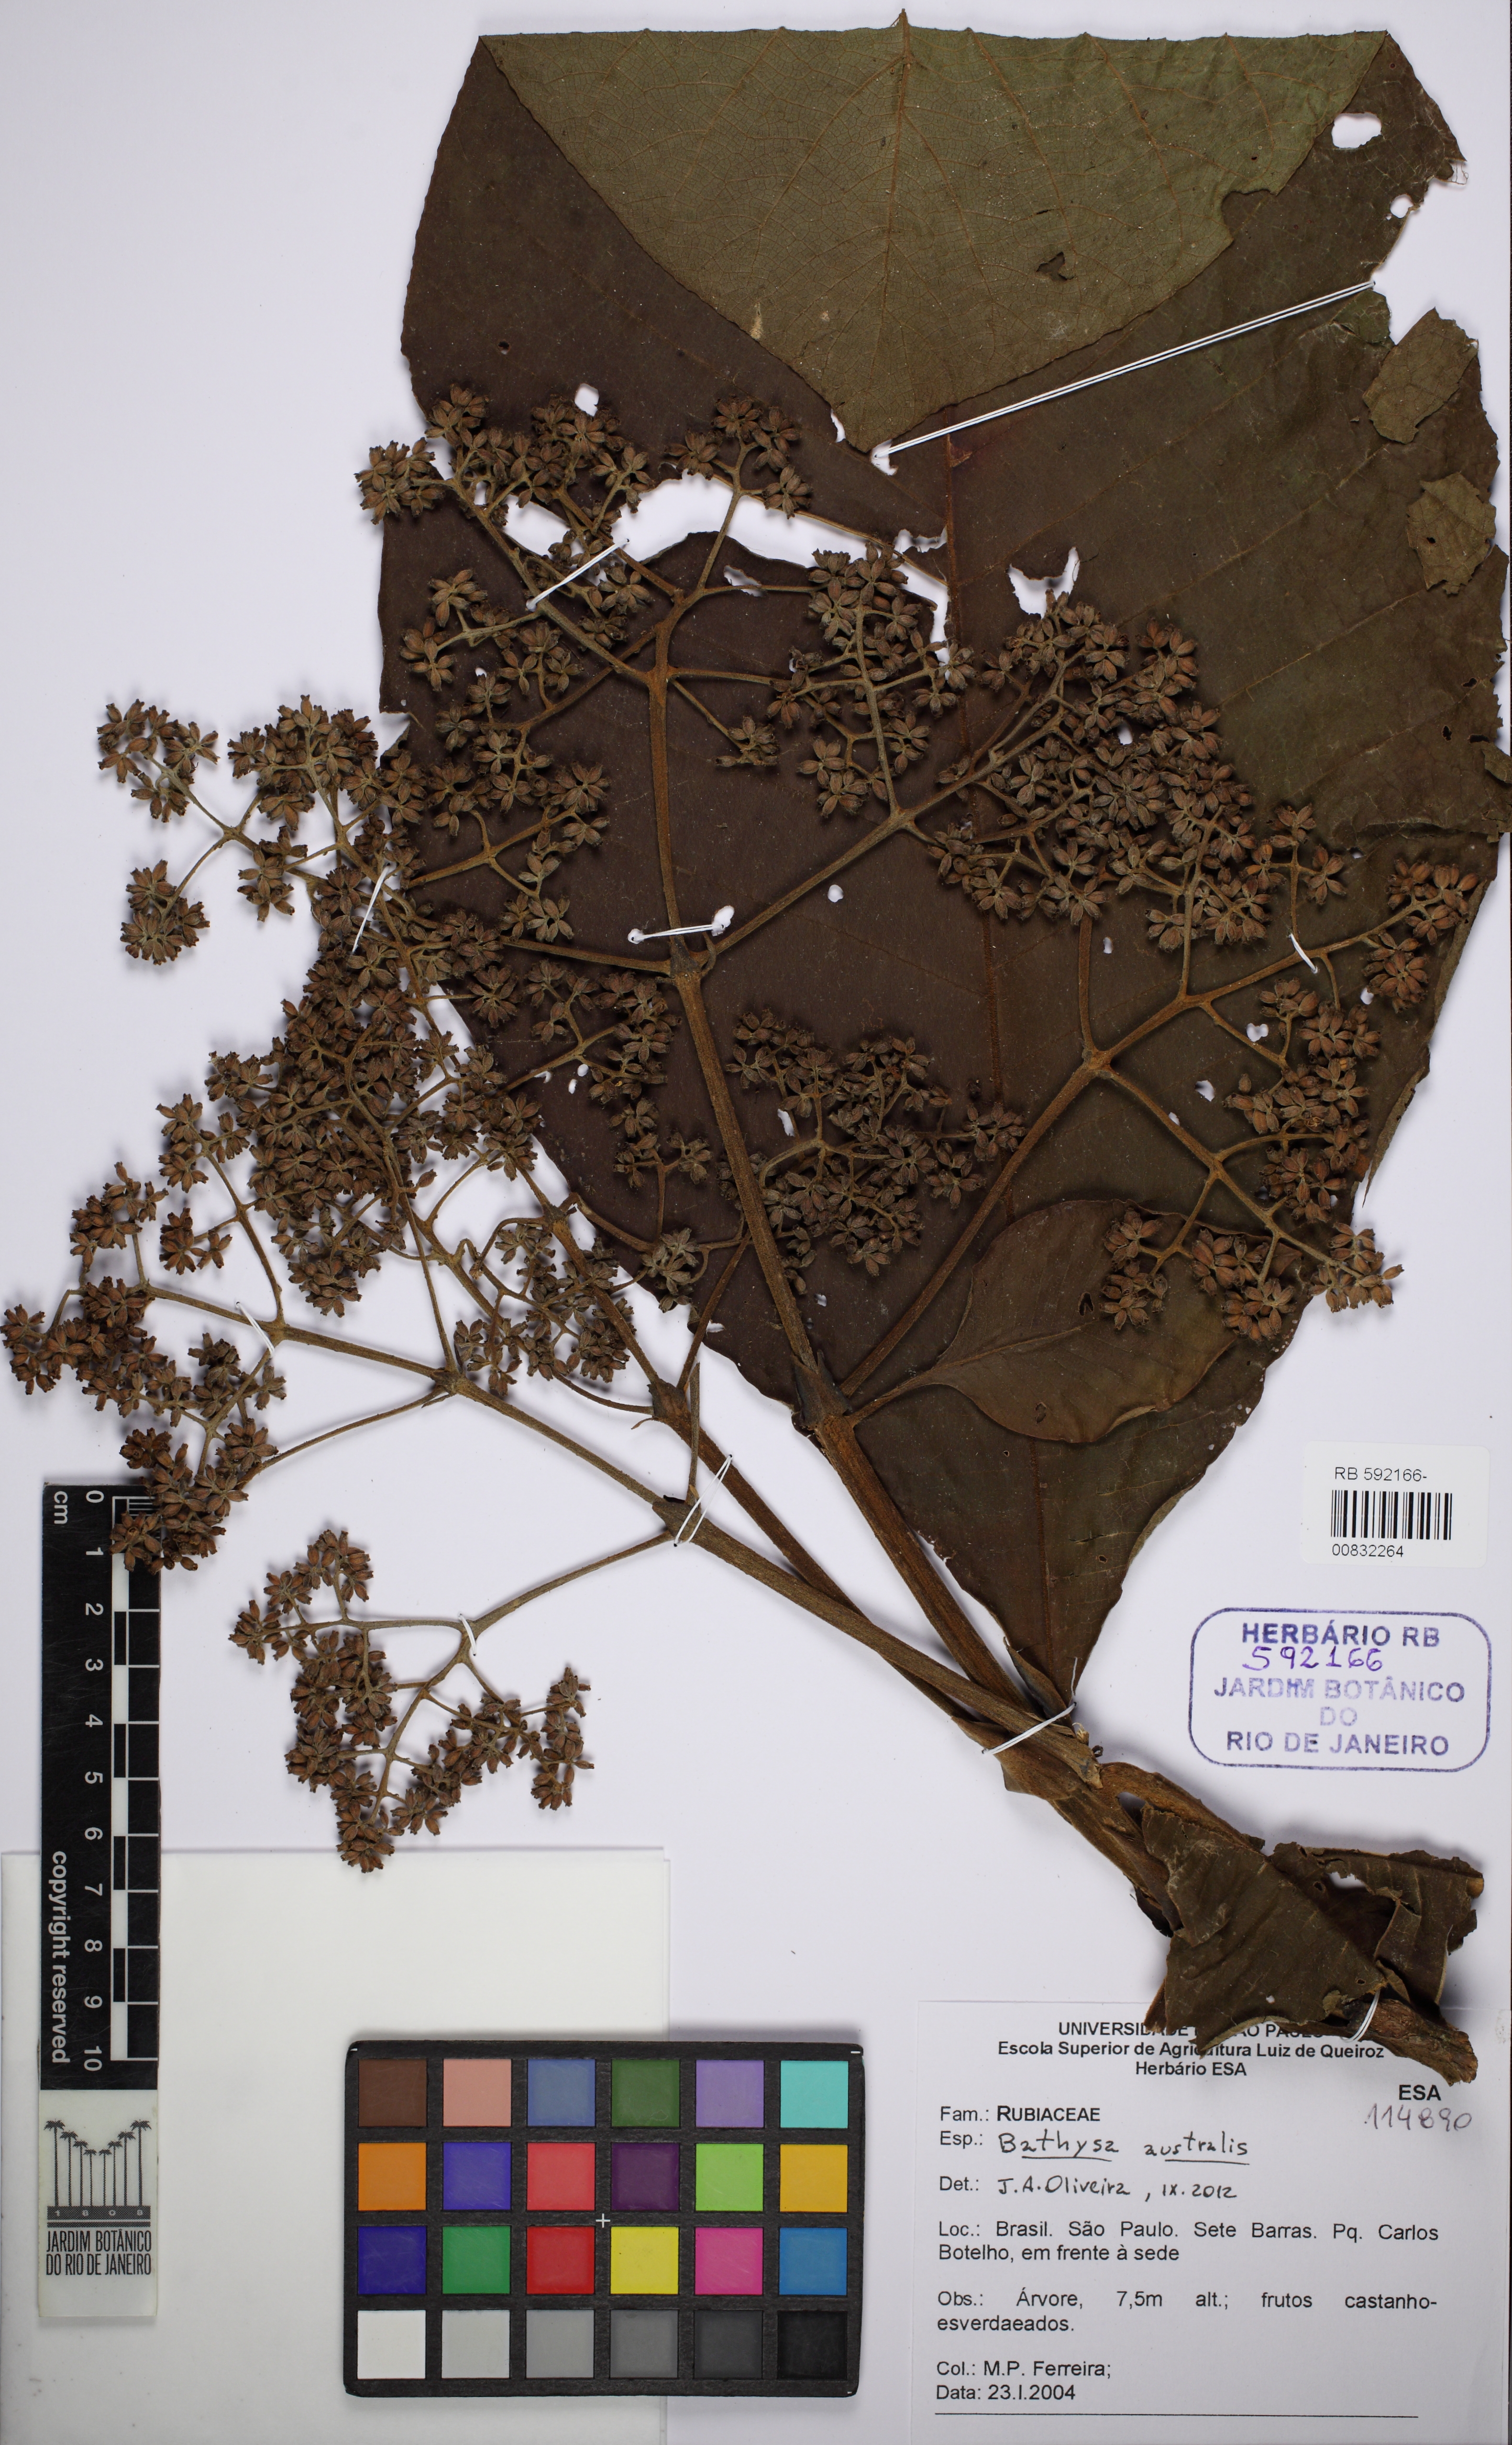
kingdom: Plantae
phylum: Tracheophyta
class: Magnoliopsida
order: Gentianales
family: Rubiaceae
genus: Bathysa
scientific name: Bathysa australis
